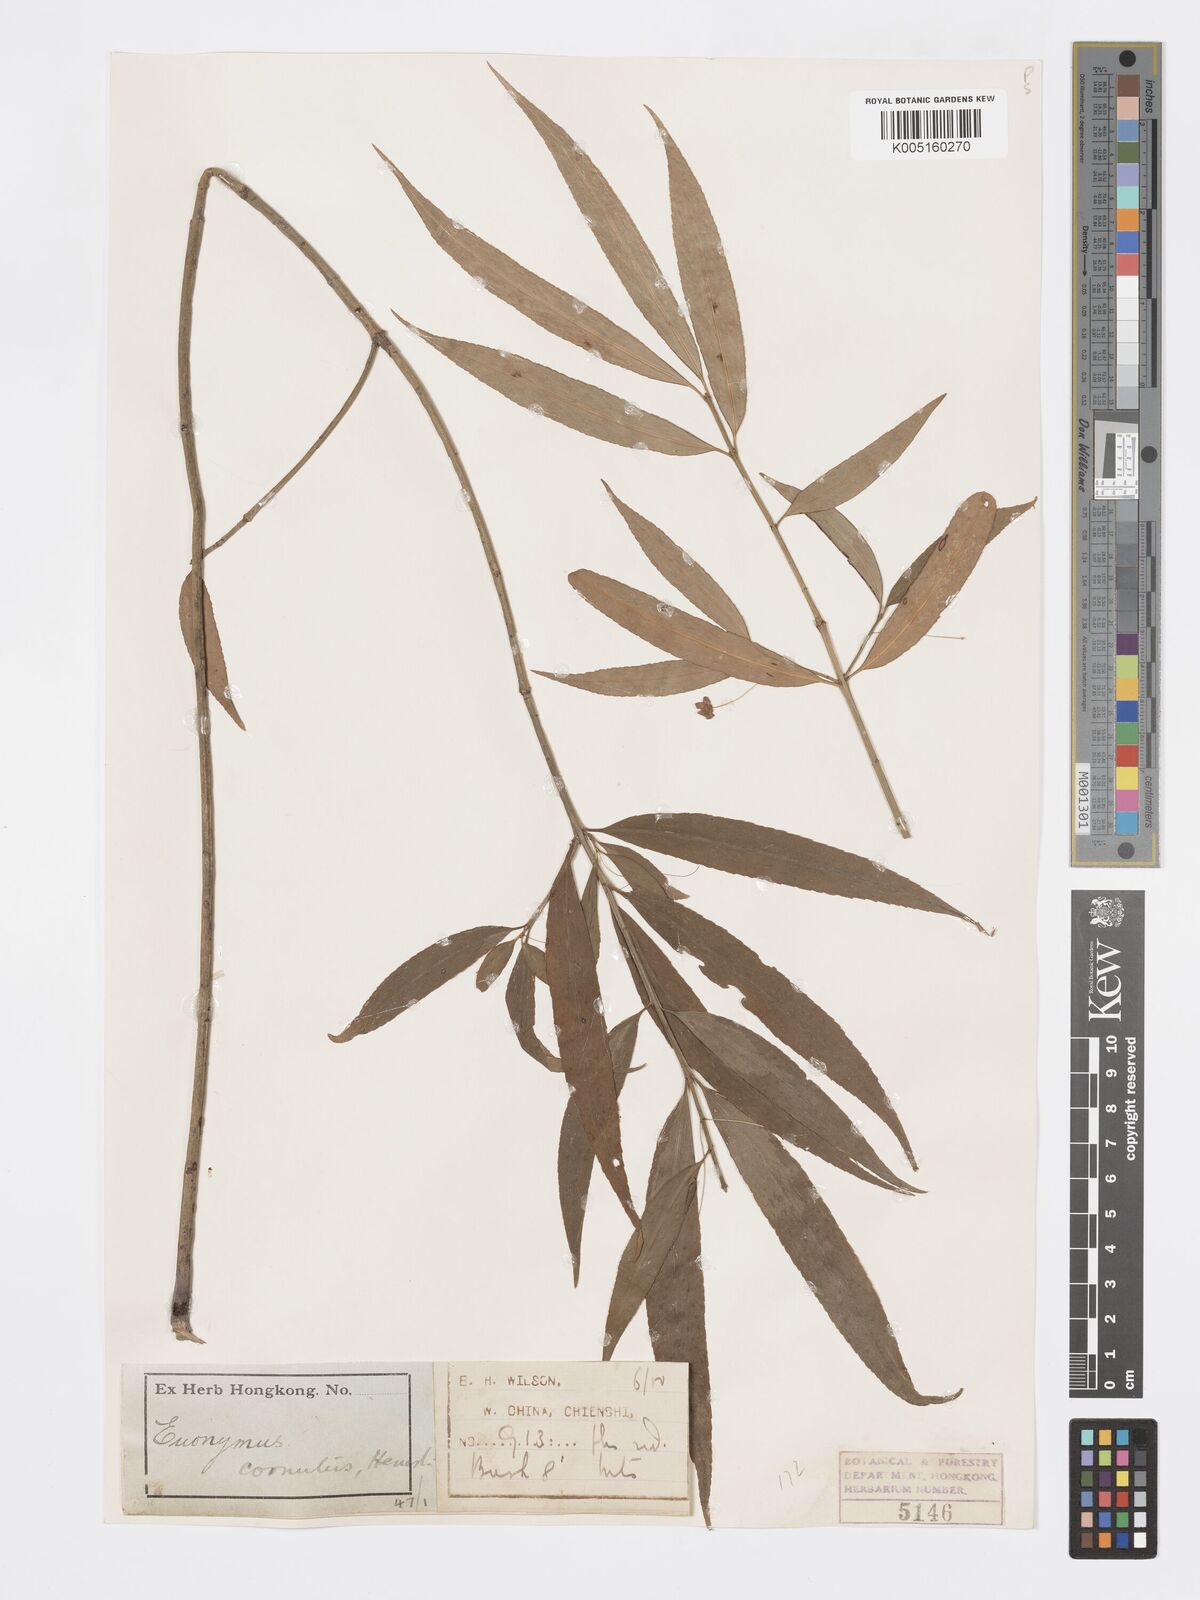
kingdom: Plantae
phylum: Tracheophyta
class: Magnoliopsida
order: Celastrales
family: Celastraceae
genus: Euonymus
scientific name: Euonymus cornutus
